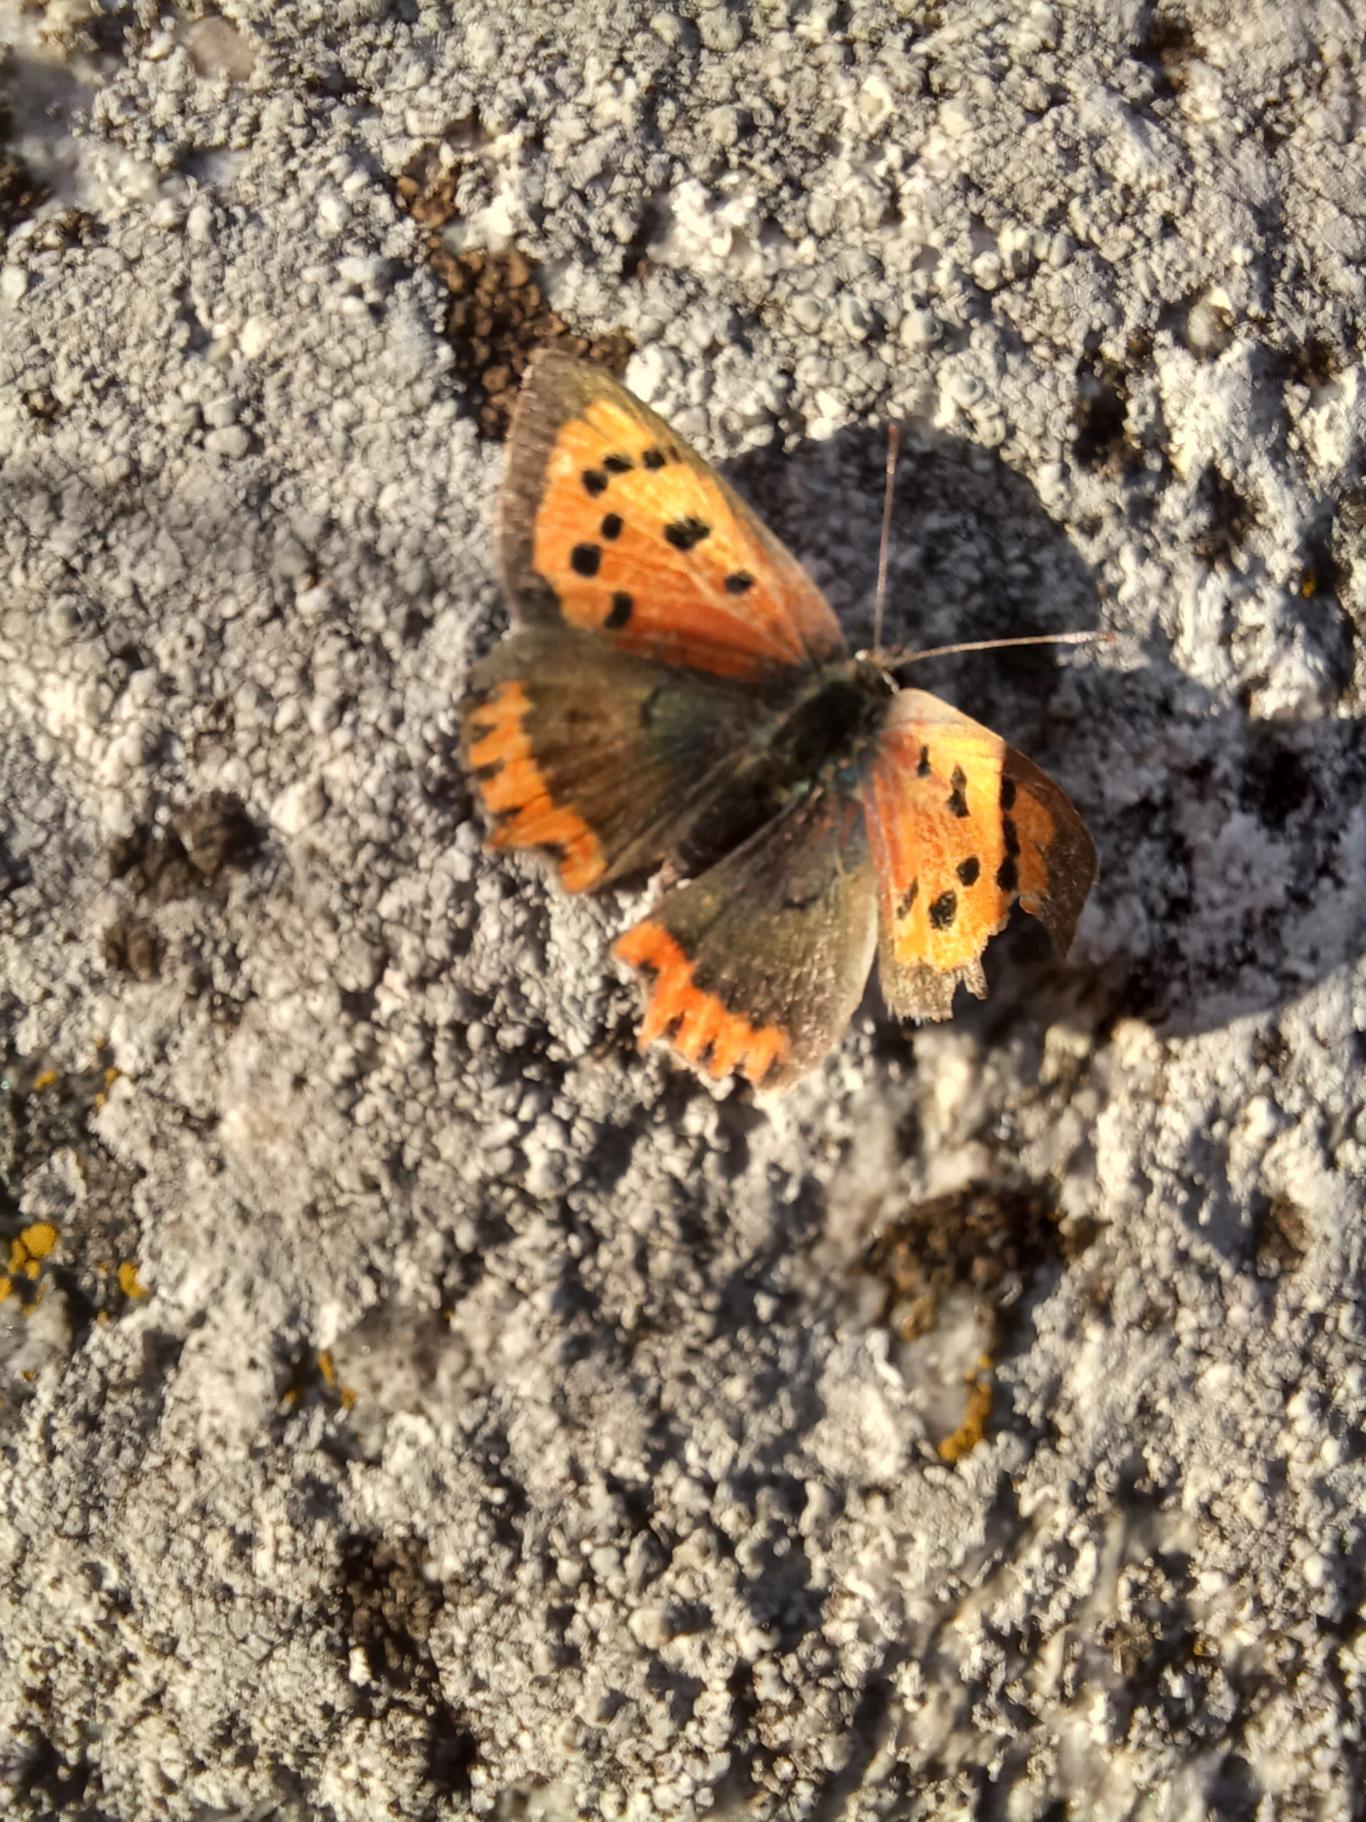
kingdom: Animalia
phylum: Arthropoda
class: Insecta
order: Lepidoptera
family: Lycaenidae
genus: Lycaena
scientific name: Lycaena phlaeas
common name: Lille ildfugl
